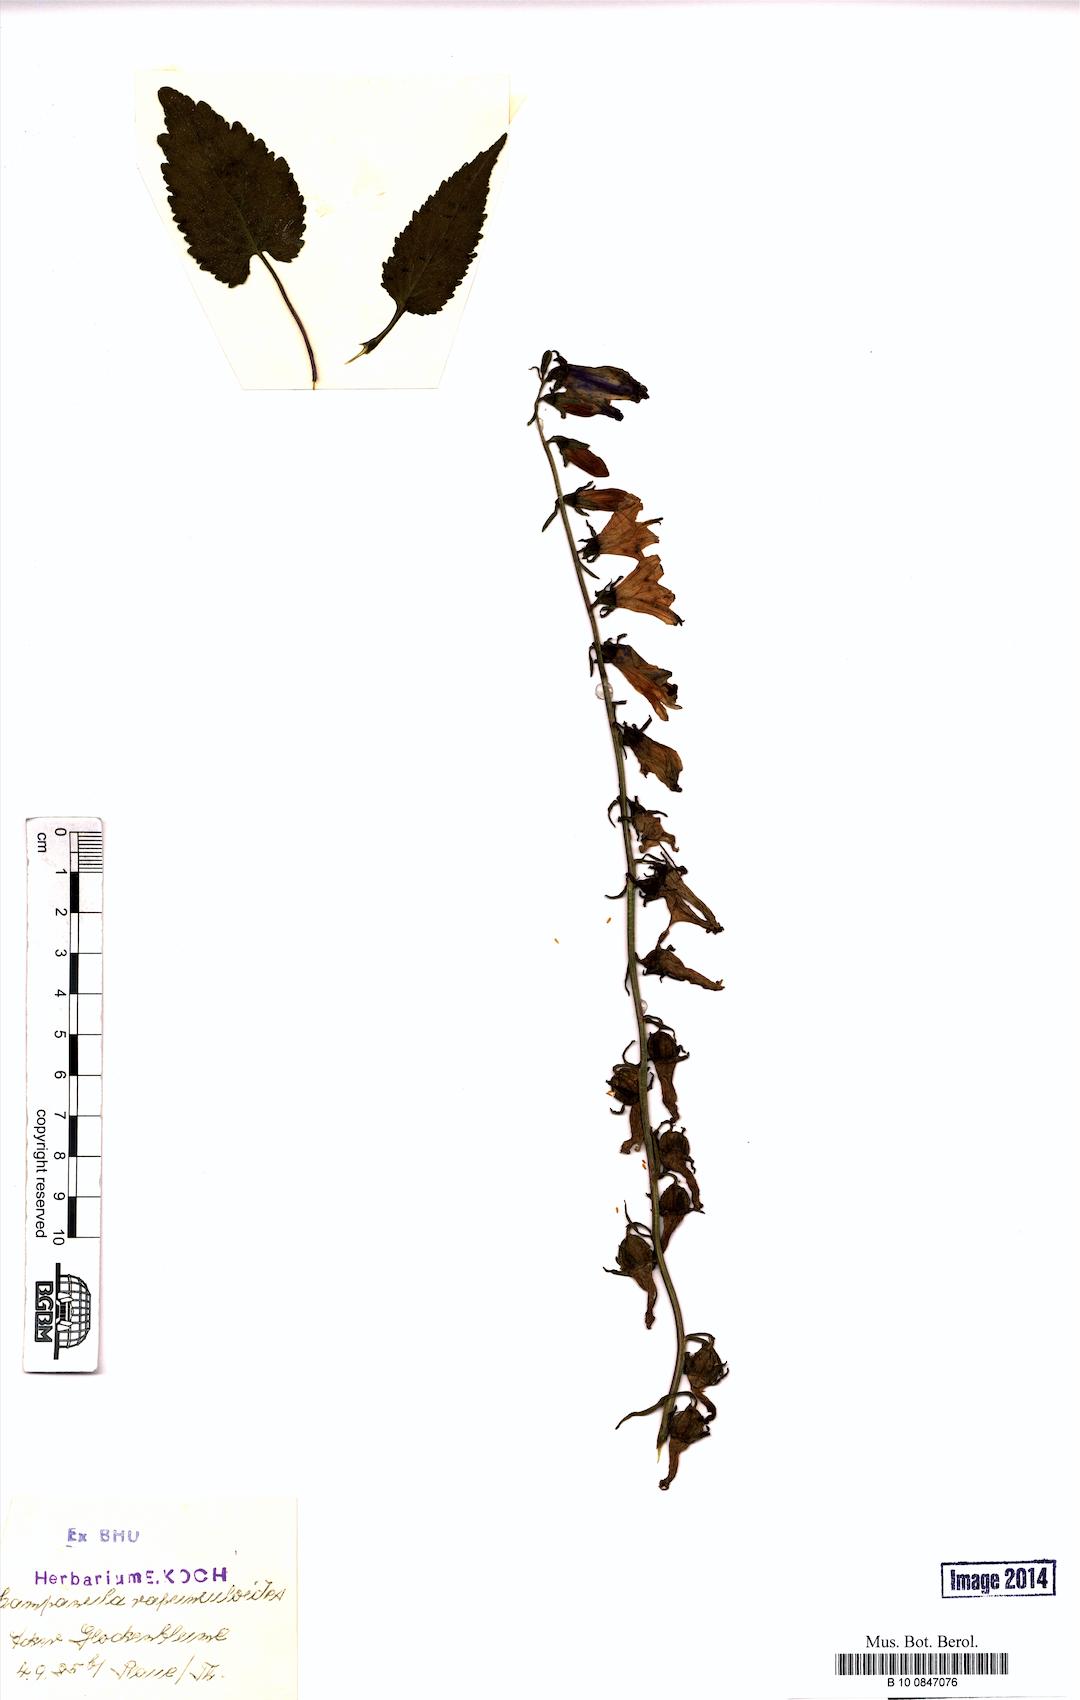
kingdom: Plantae
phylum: Tracheophyta
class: Magnoliopsida
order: Asterales
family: Campanulaceae
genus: Campanula
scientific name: Campanula rapunculoides
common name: Creeping bellflower
